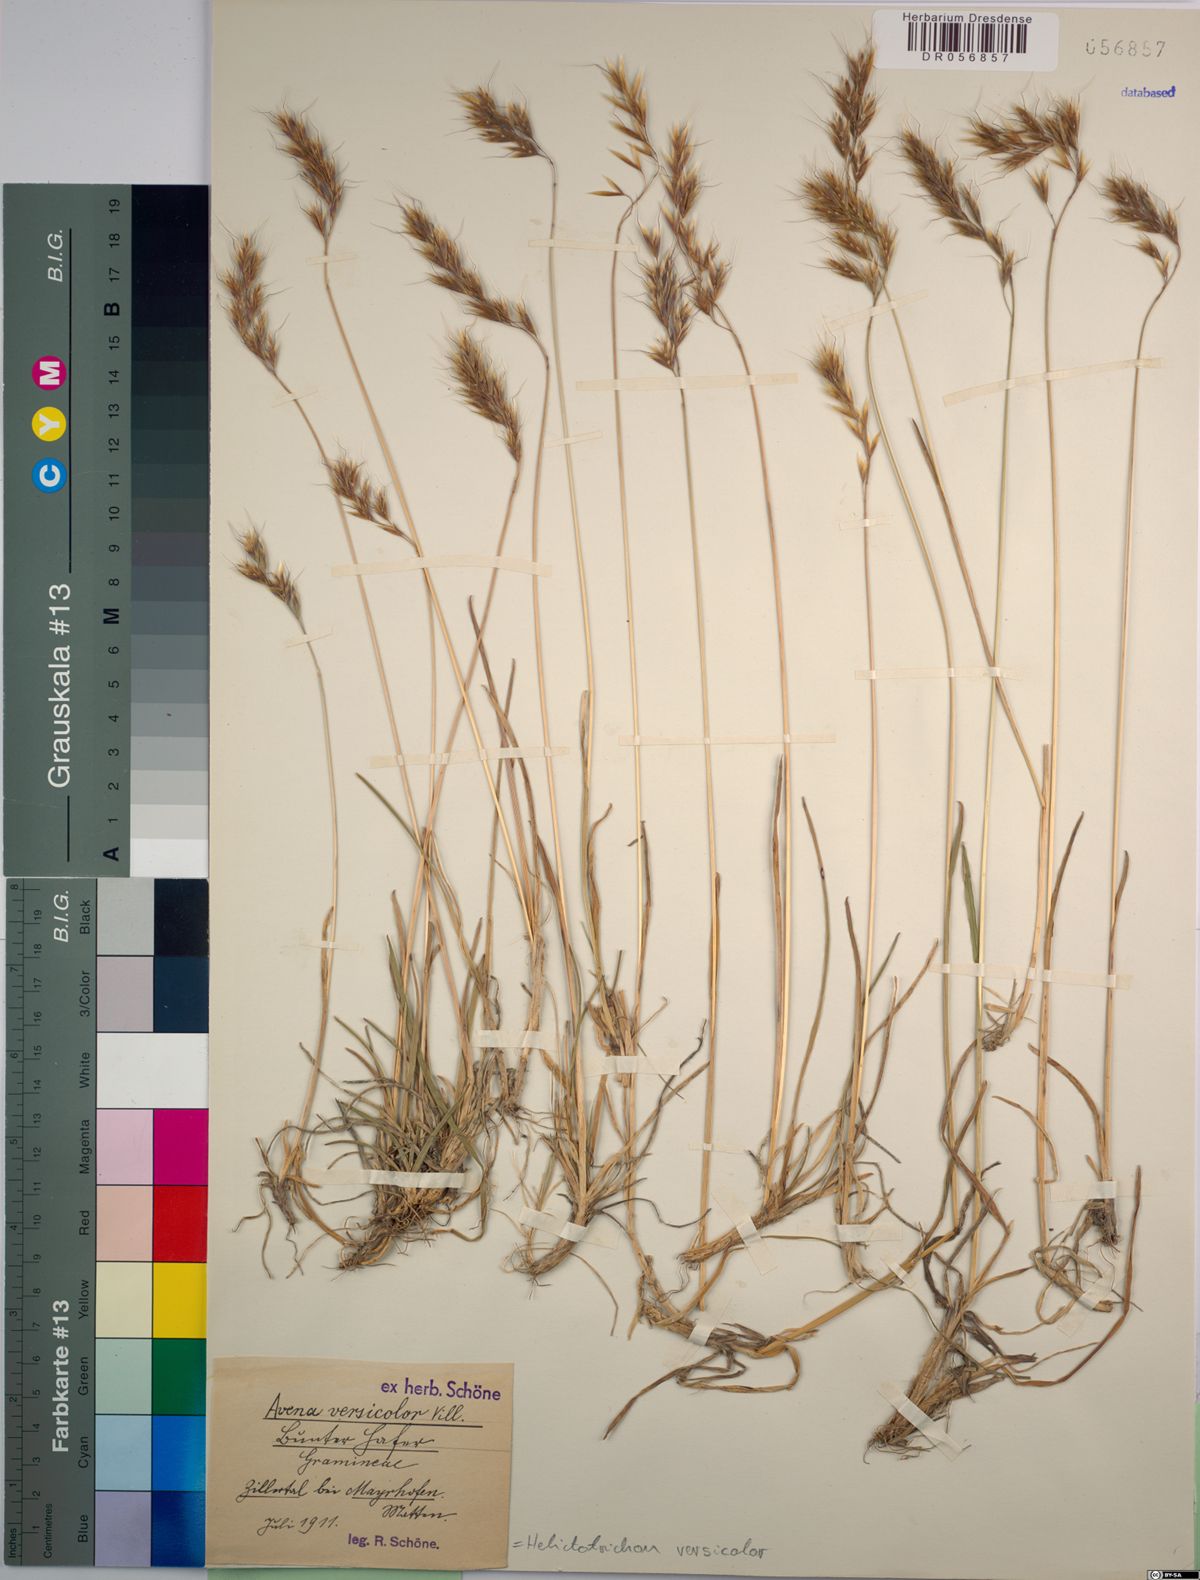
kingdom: Plantae
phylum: Tracheophyta
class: Liliopsida
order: Poales
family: Poaceae
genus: Helictochloa
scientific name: Helictochloa versicolor
